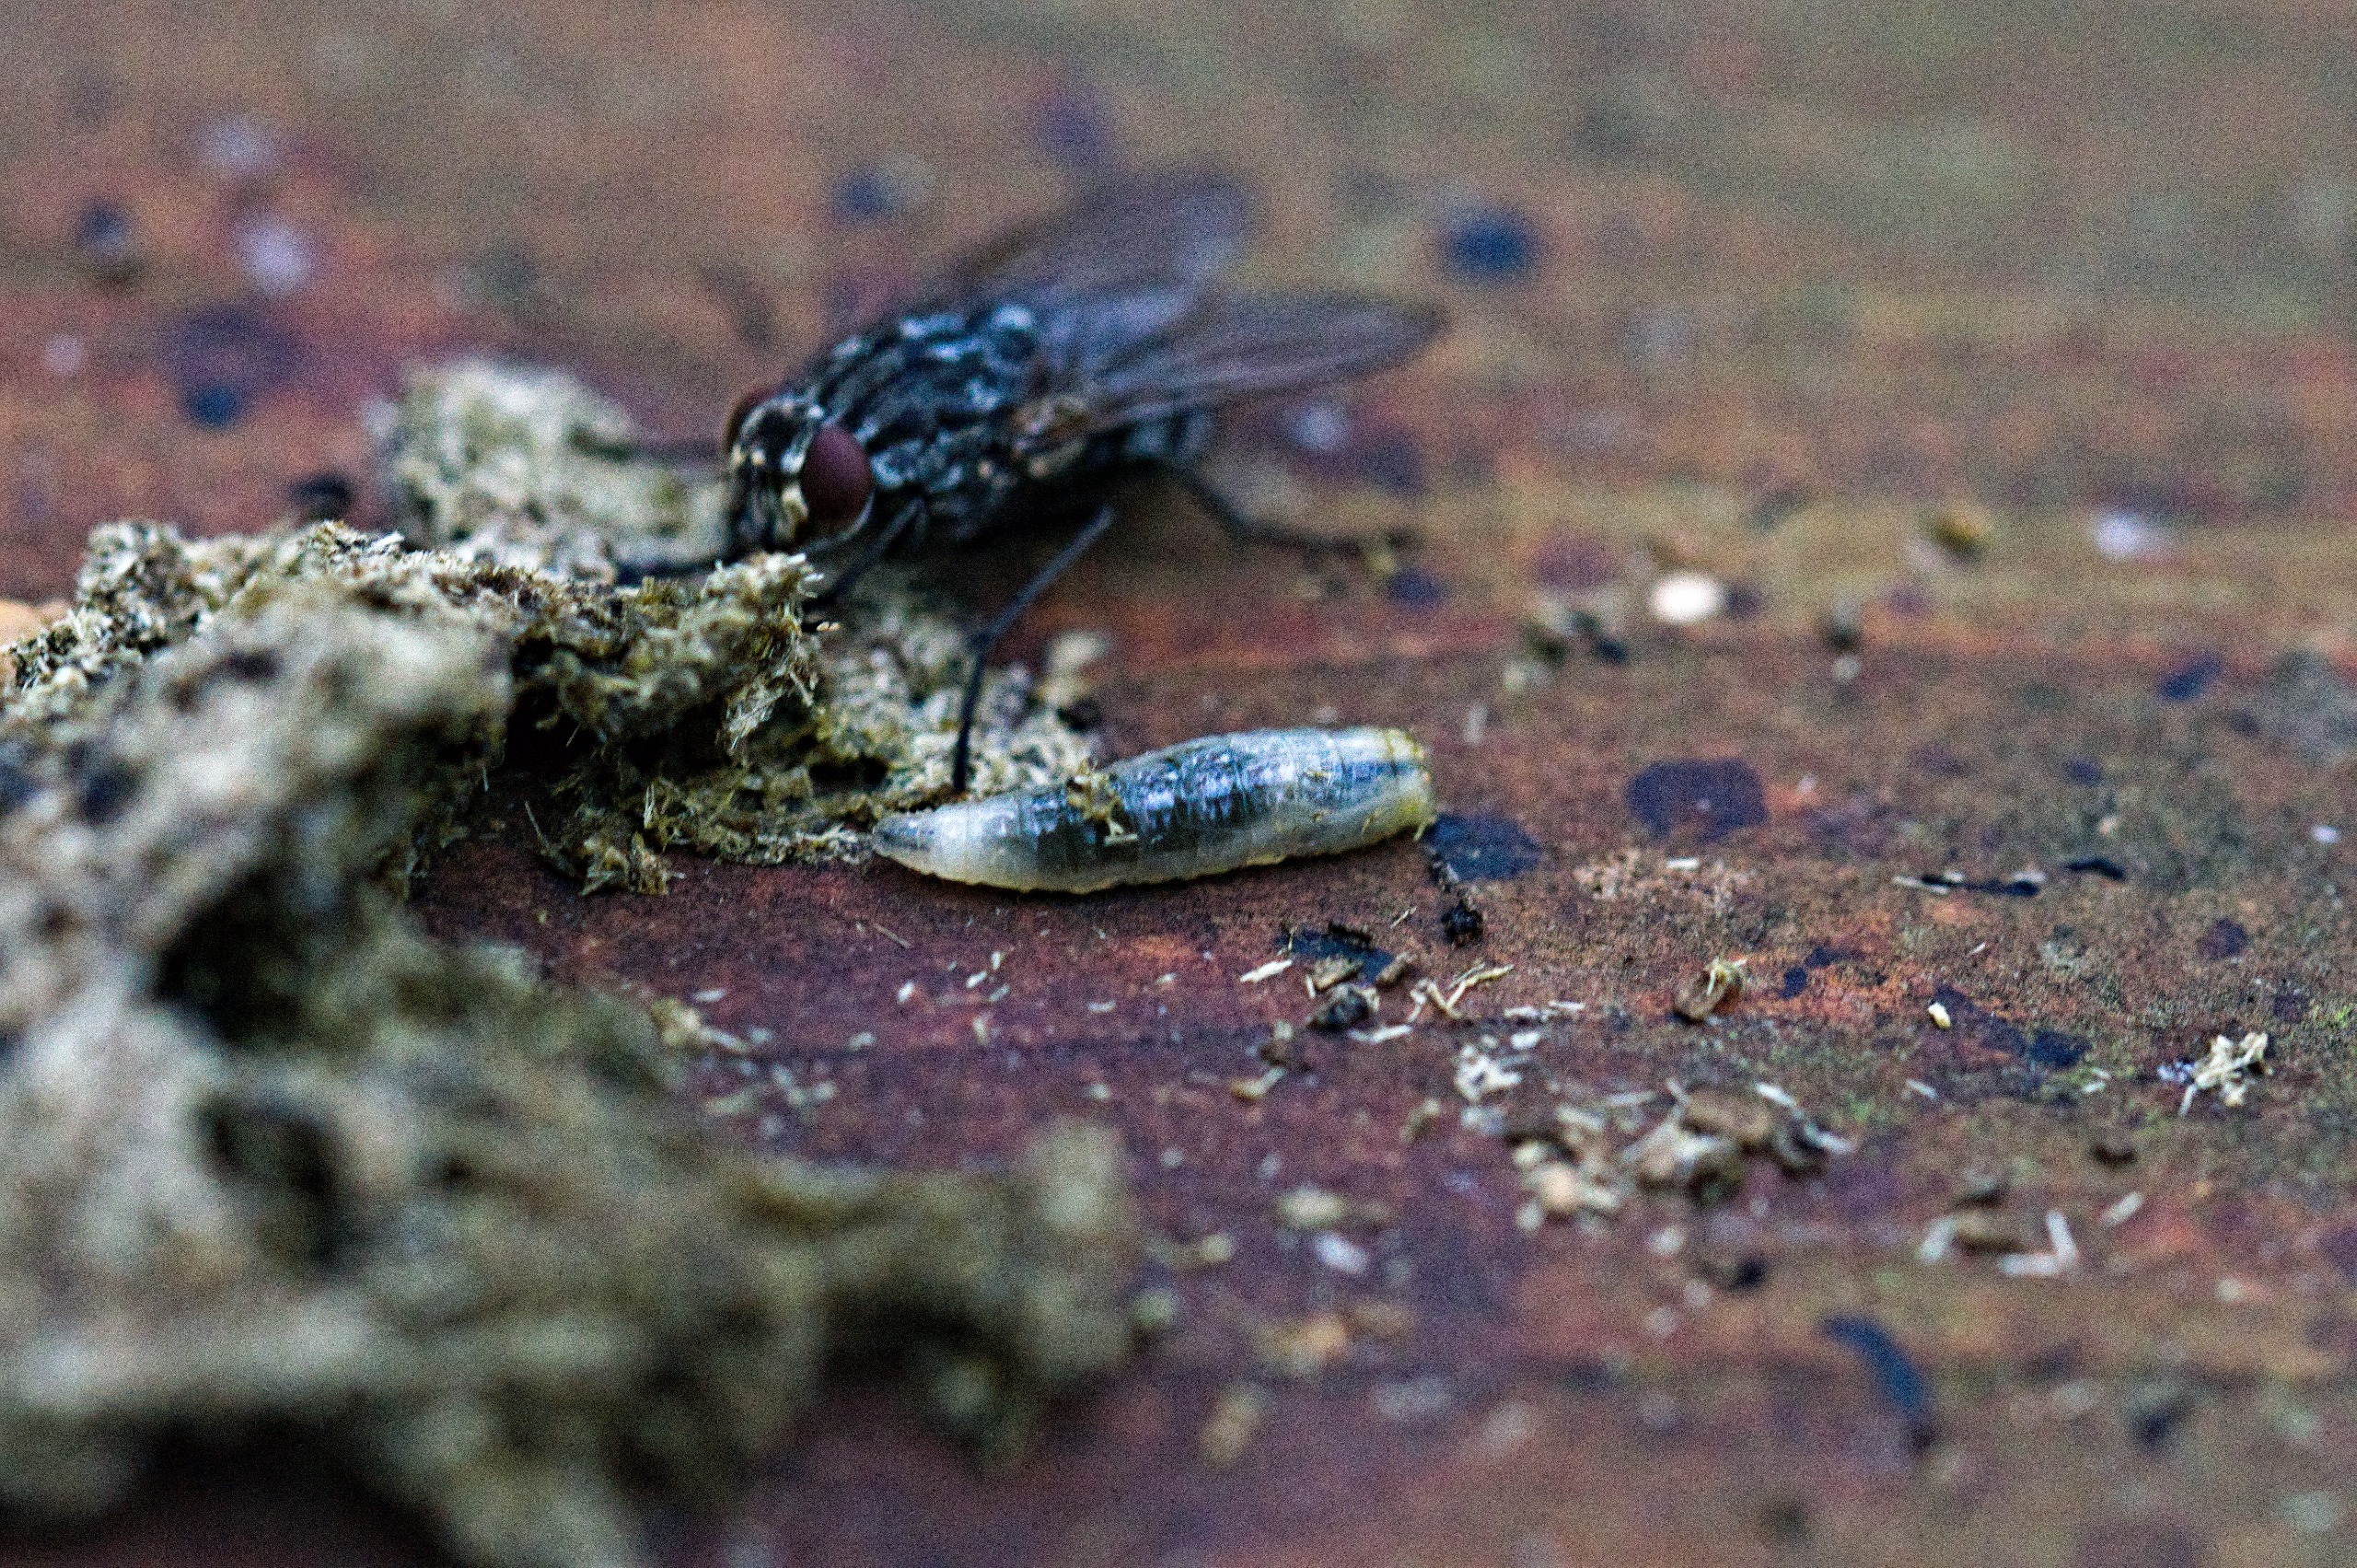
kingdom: Animalia
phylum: Arthropoda
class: Insecta
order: Diptera
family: Muscidae
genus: Polietes
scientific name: Polietes lardaria
